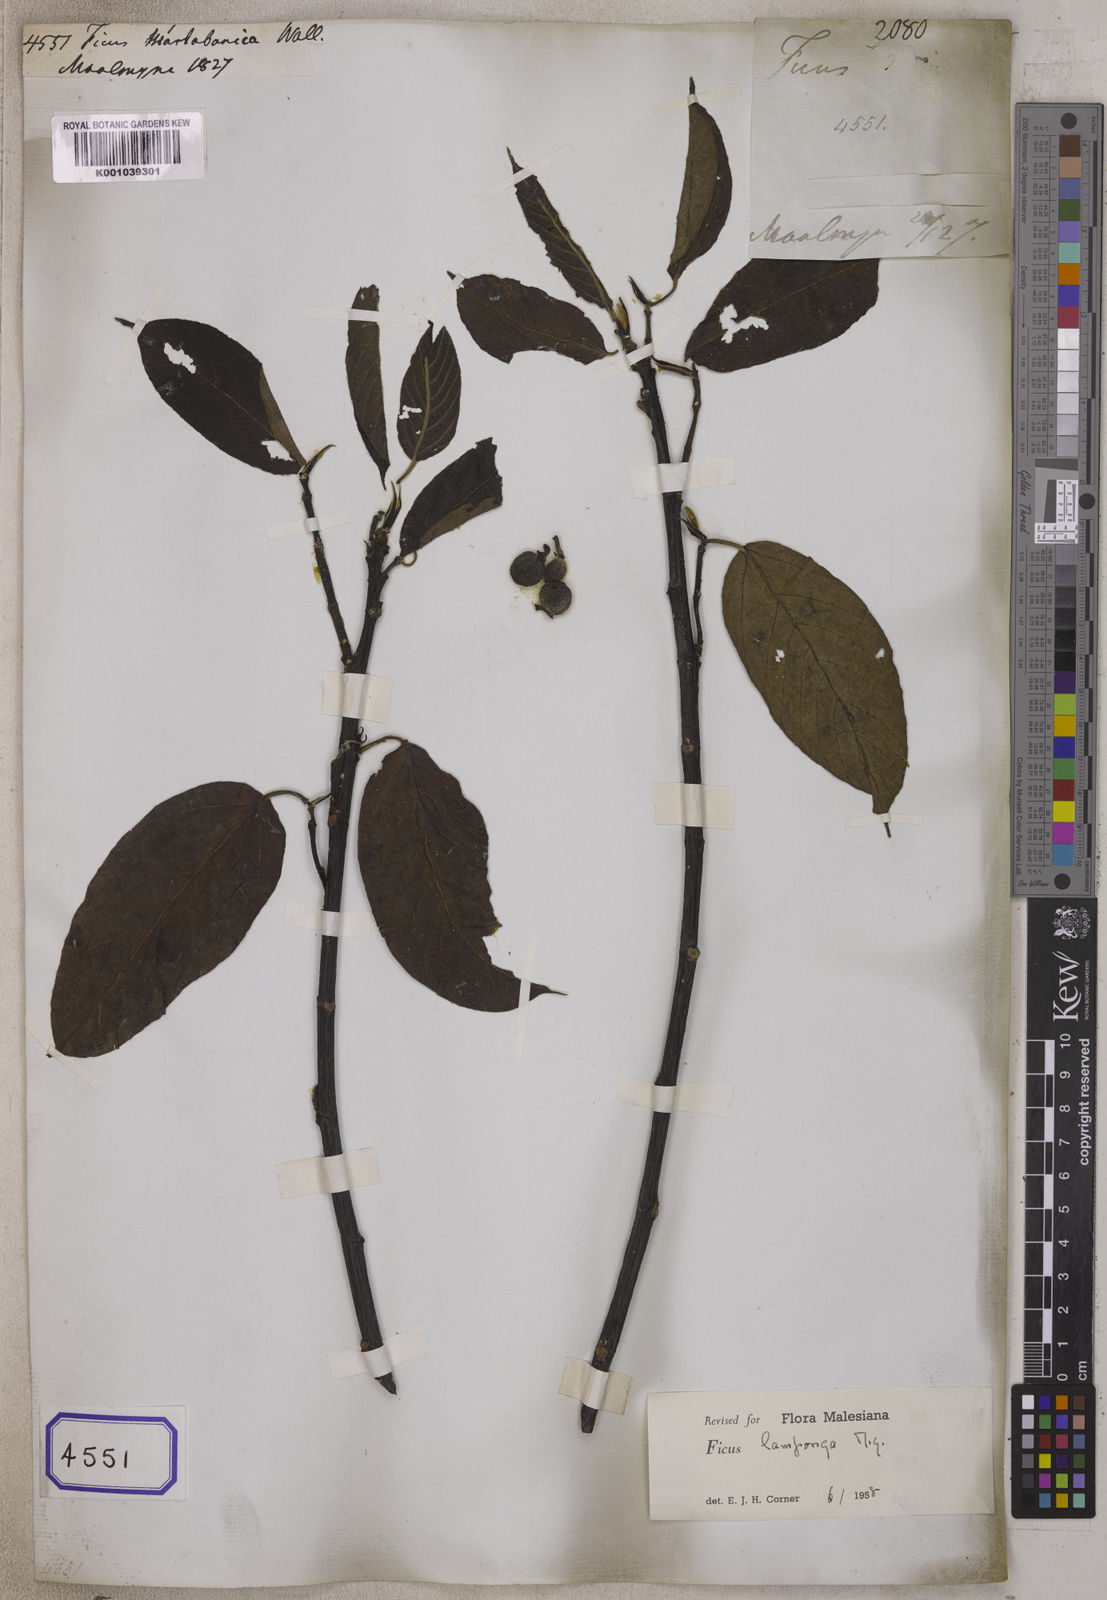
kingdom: Plantae
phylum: Tracheophyta
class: Magnoliopsida
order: Rosales
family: Moraceae
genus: Ficus
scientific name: Ficus
